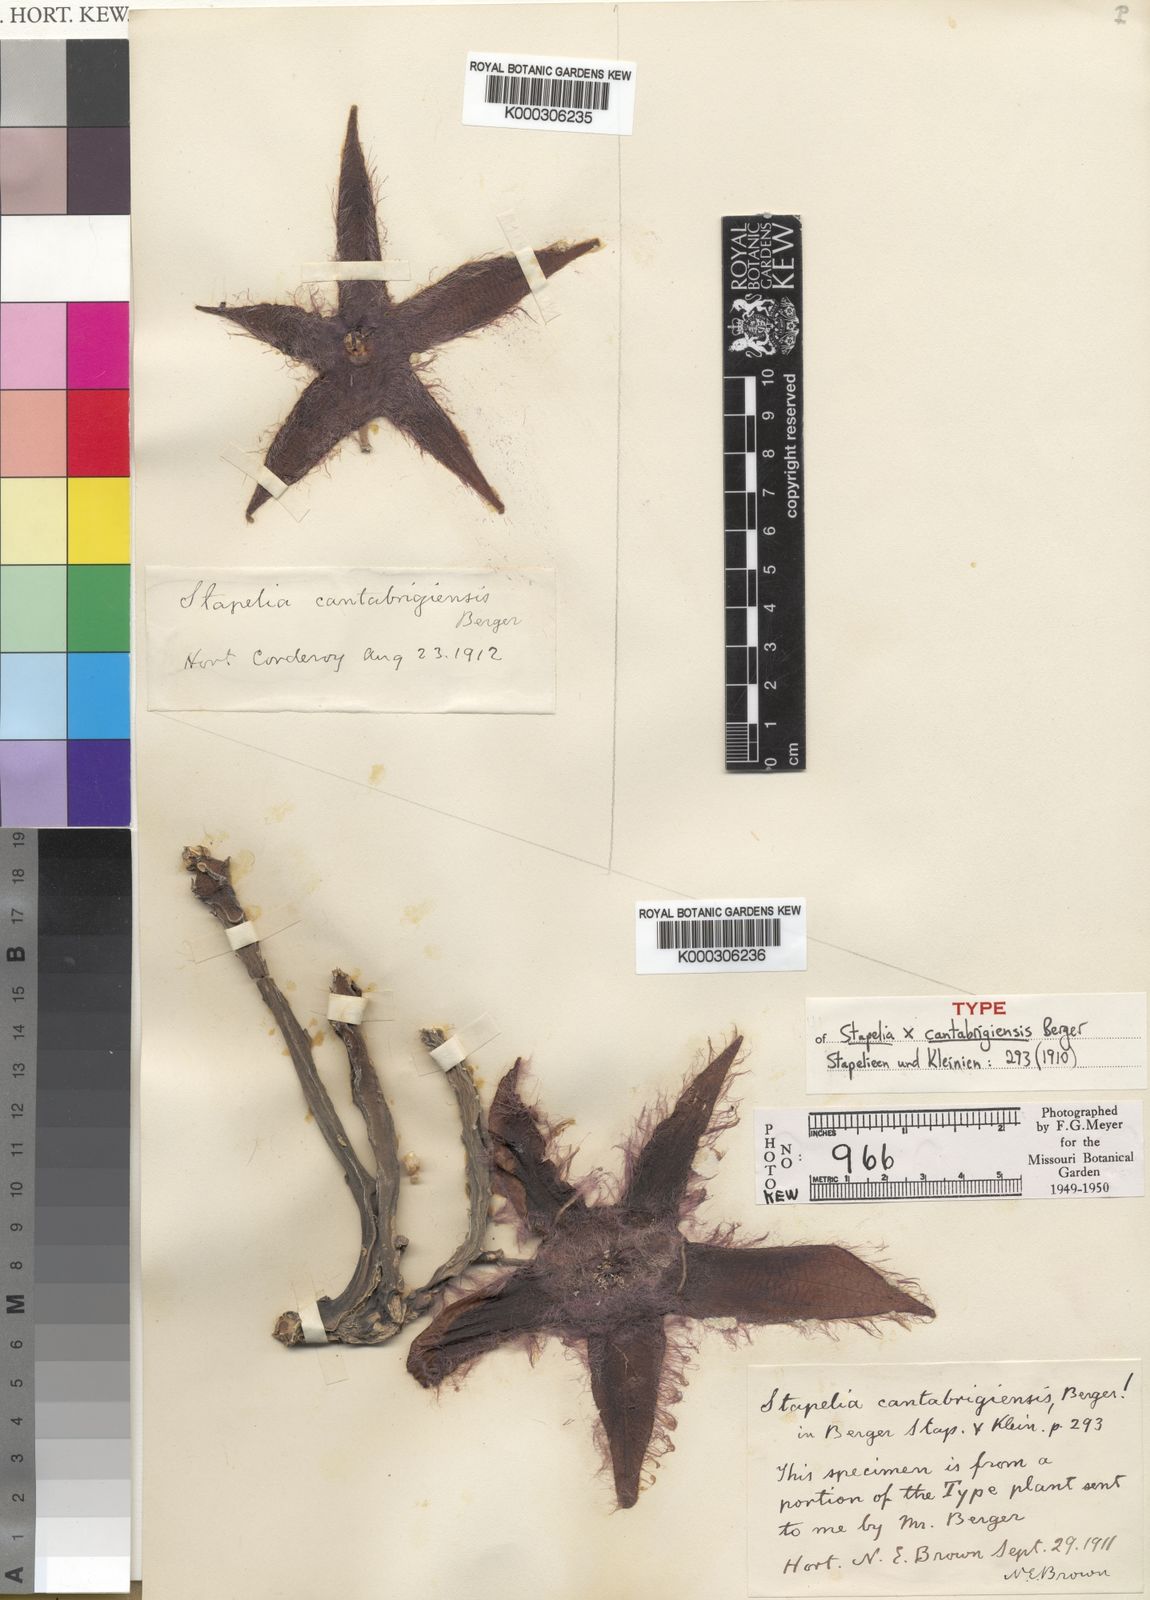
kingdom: Plantae
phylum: Tracheophyta
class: Magnoliopsida
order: Gentianales
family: Apocynaceae
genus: Stapelia
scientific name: Stapelia cantabrigensis
